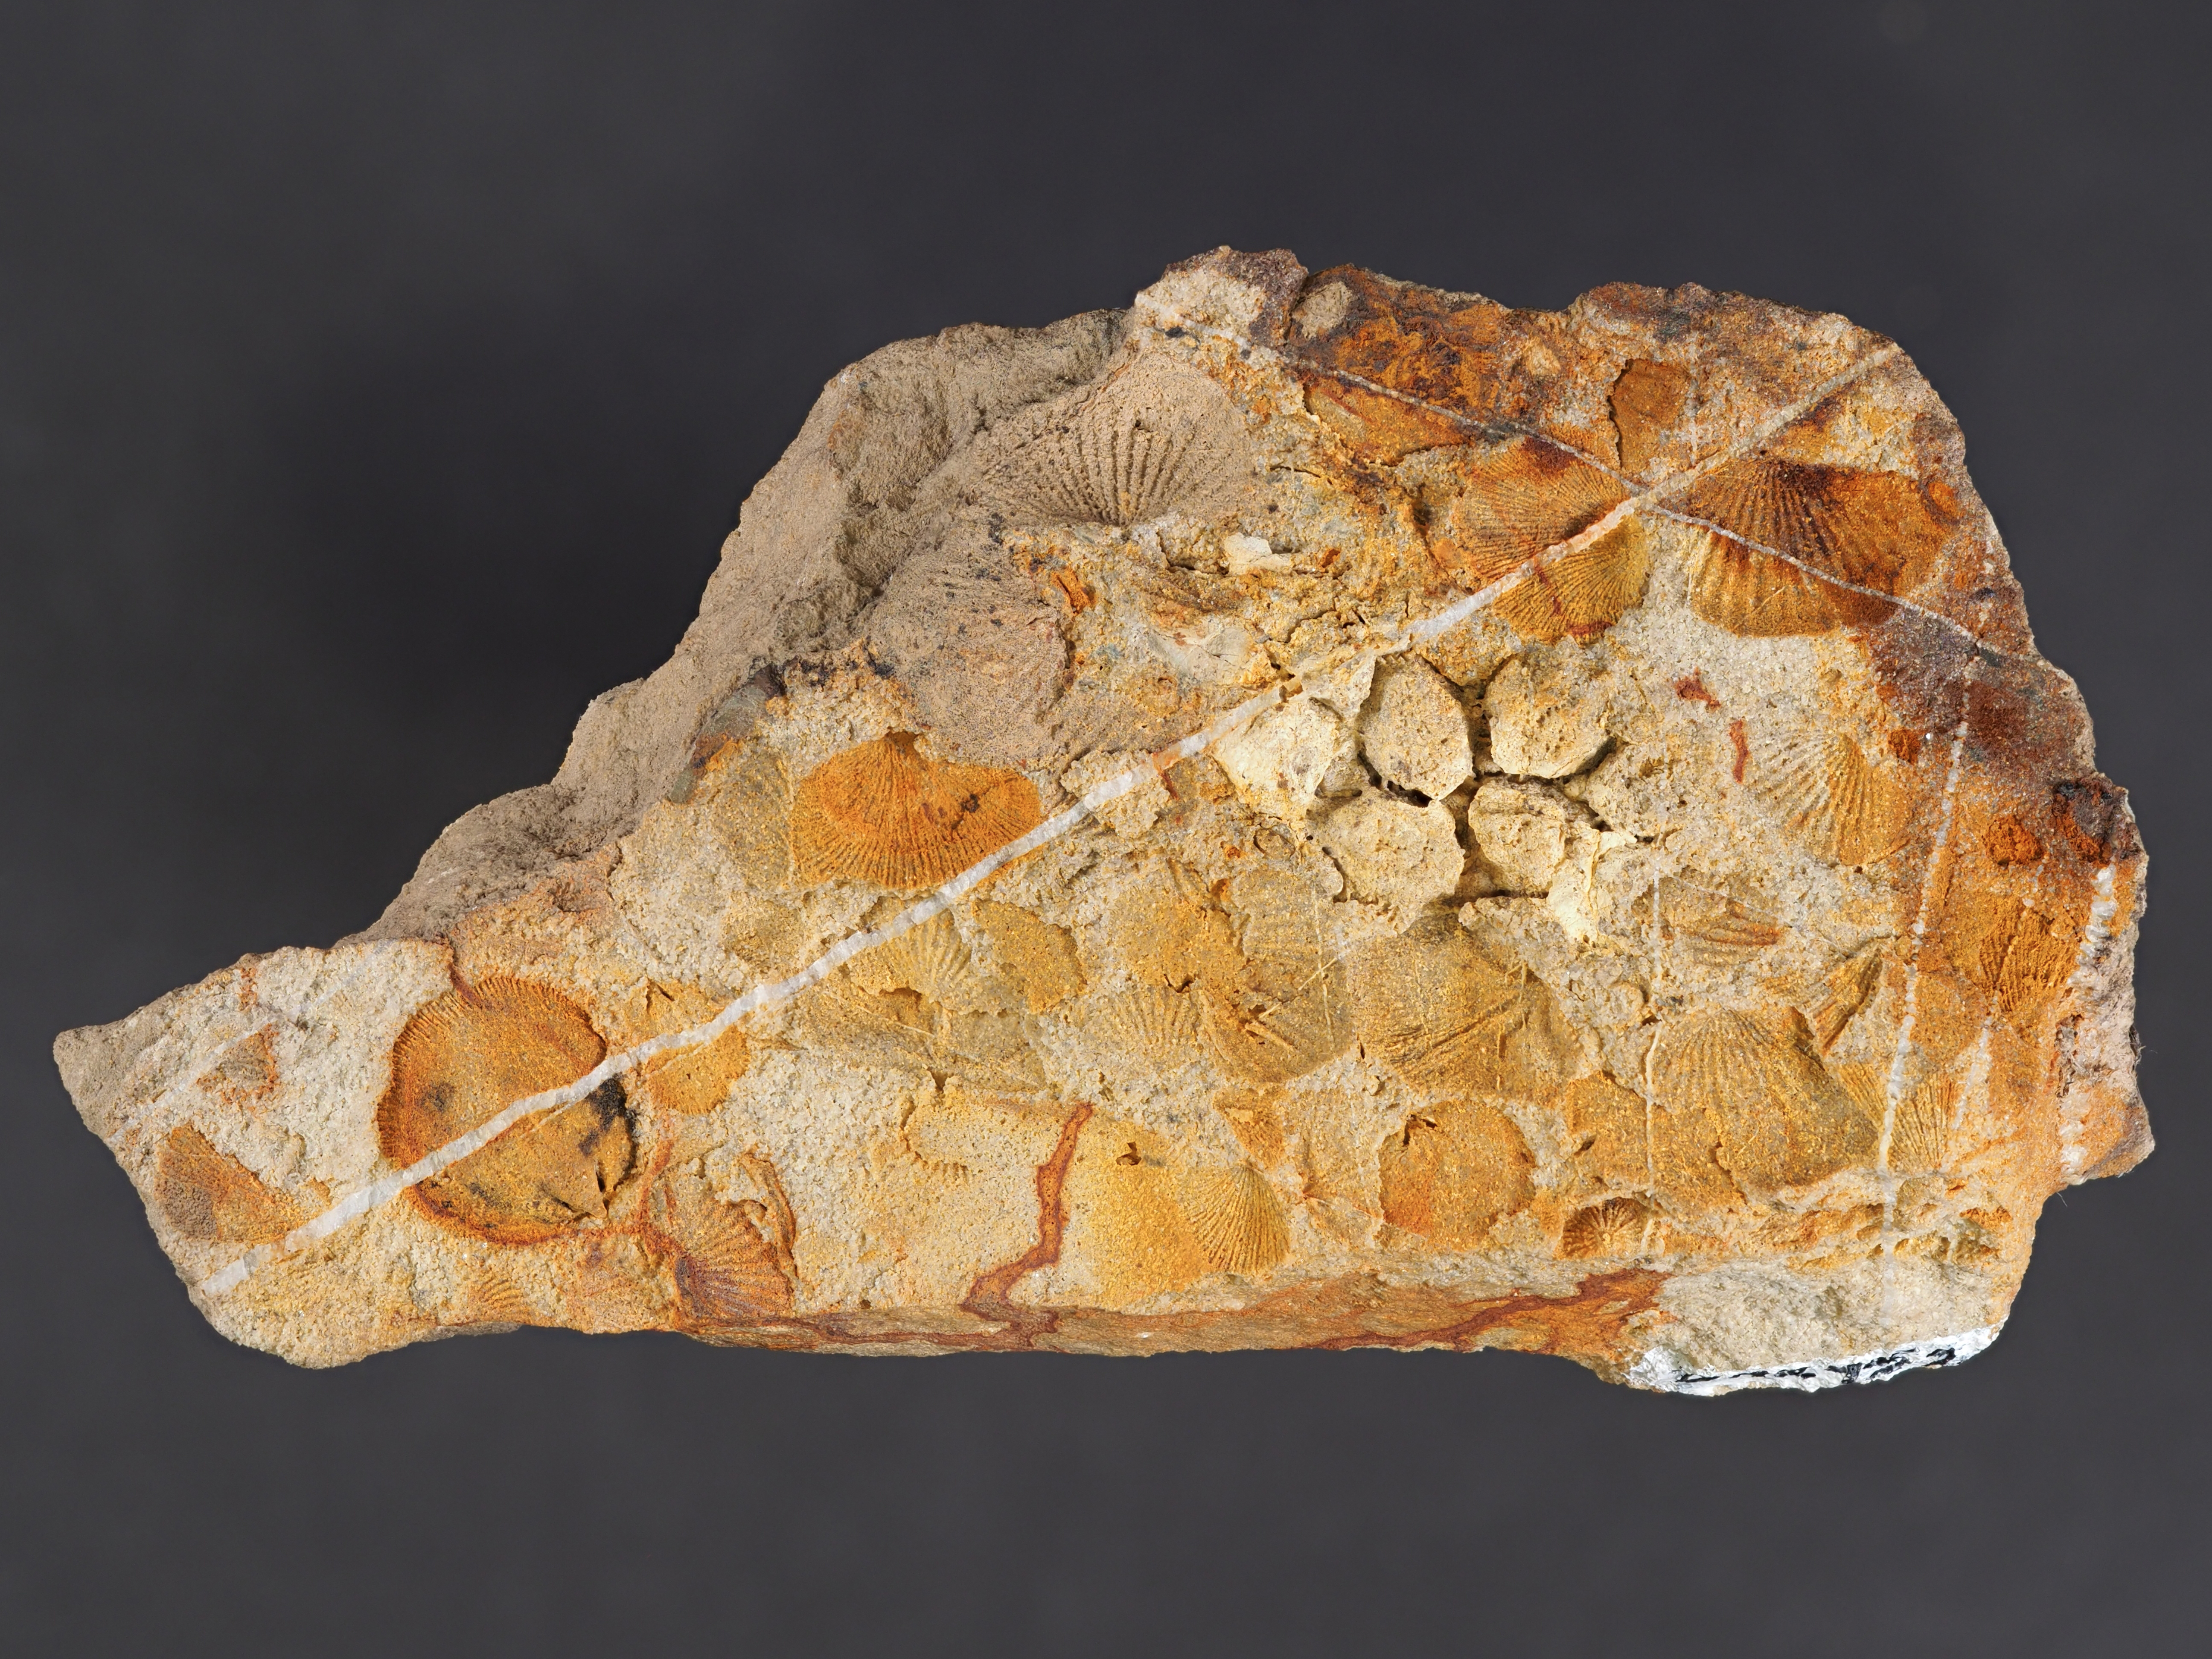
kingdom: Animalia
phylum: Cnidaria
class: Anthozoa
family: Micheliniidae
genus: Pleurodictyum
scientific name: Pleurodictyum
